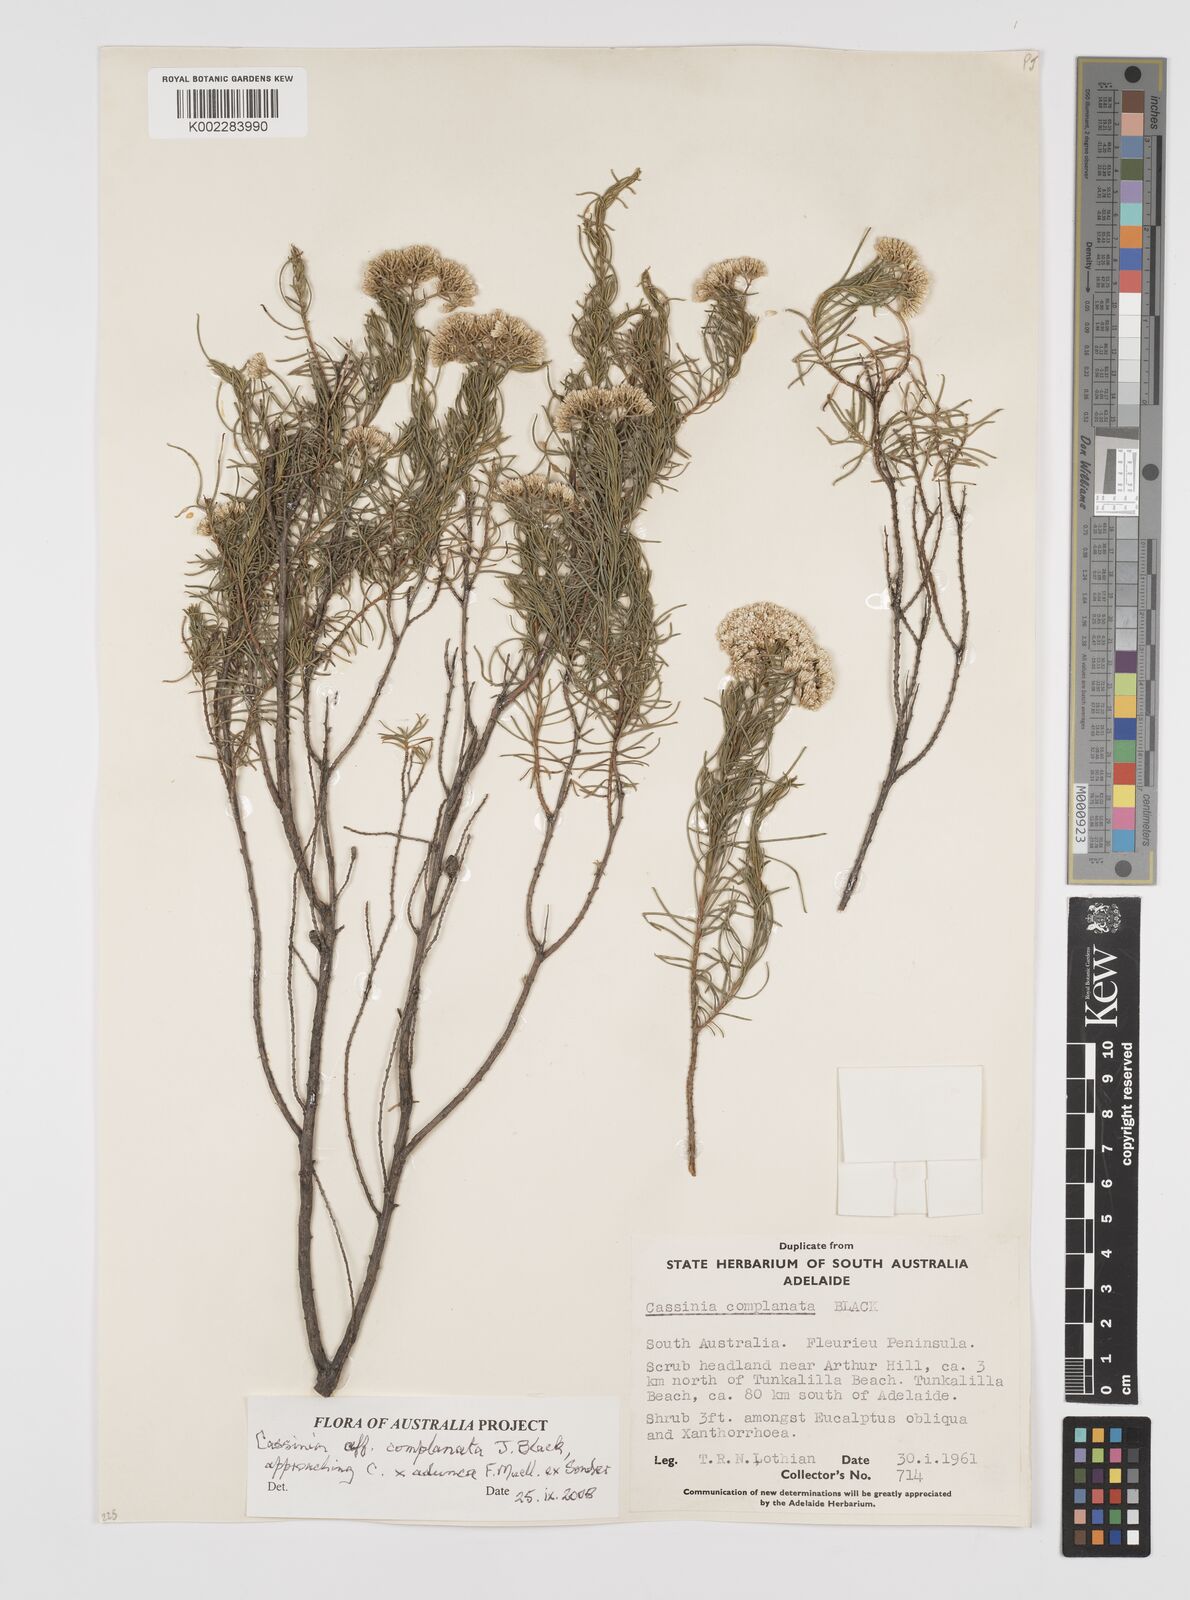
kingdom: Plantae
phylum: Tracheophyta
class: Magnoliopsida
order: Asterales
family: Asteraceae
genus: Cassinia
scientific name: Cassinia complanata
